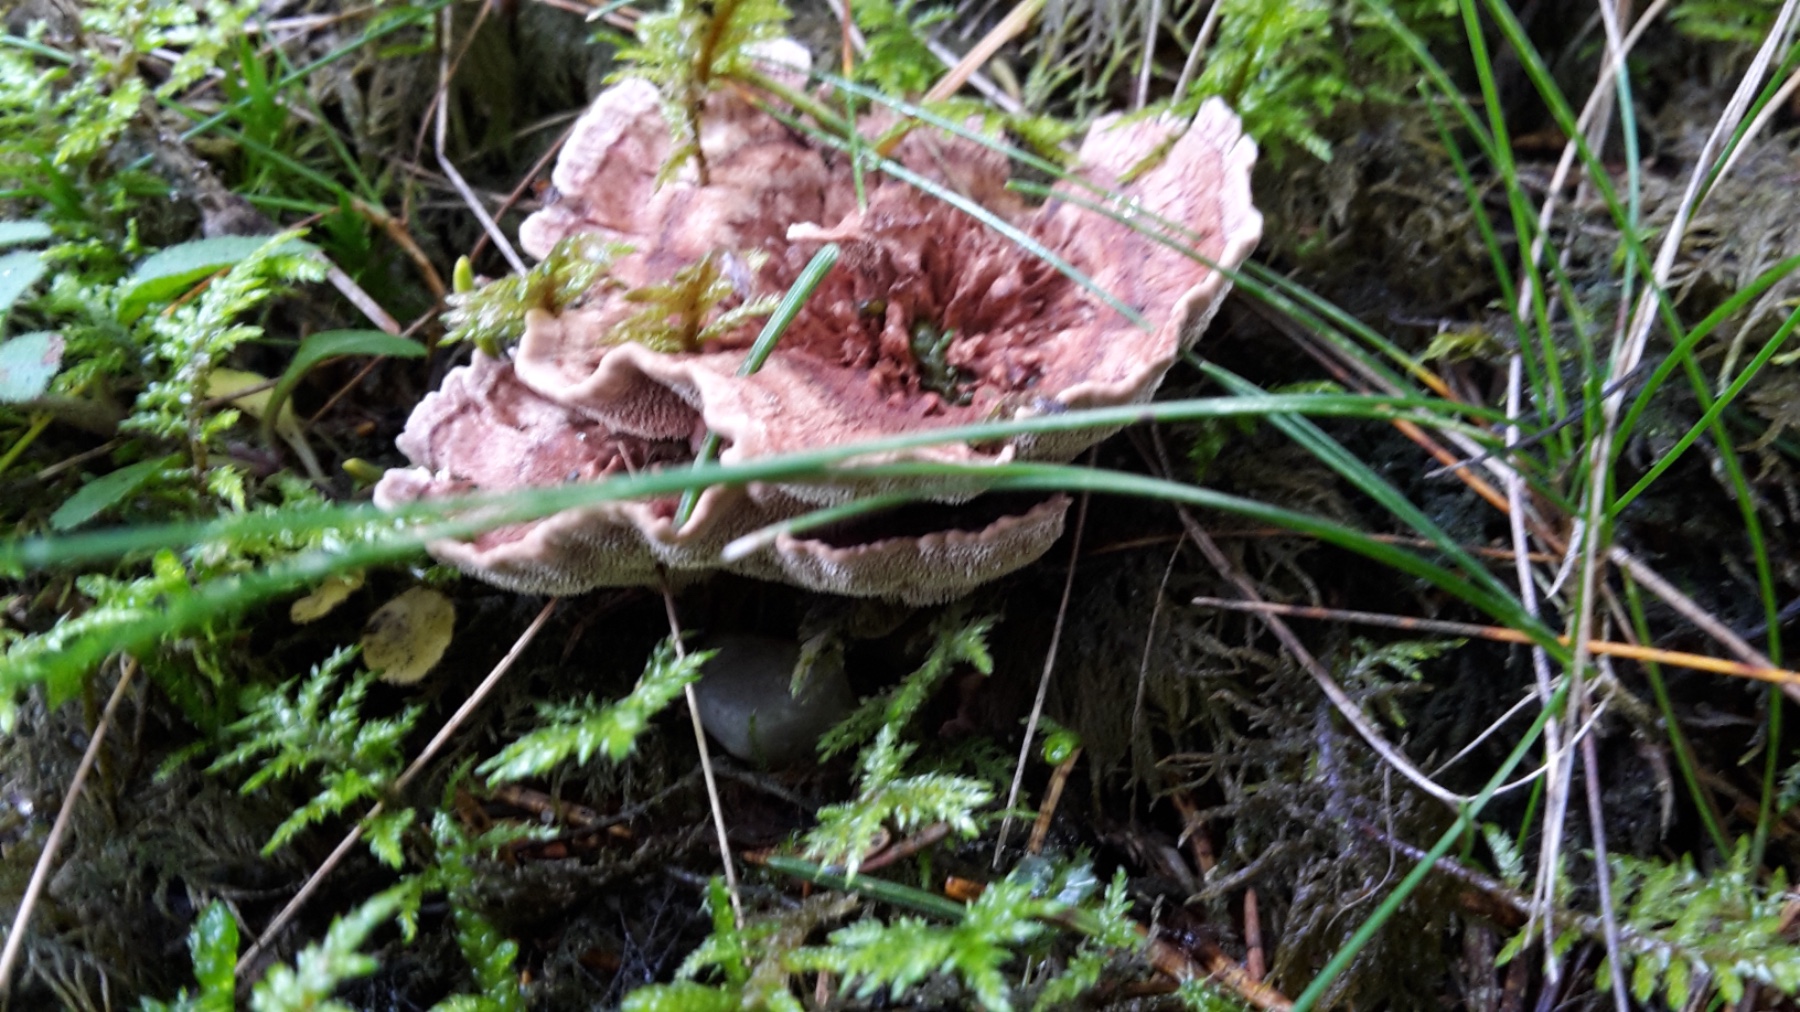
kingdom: Fungi
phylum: Basidiomycota
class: Agaricomycetes
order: Thelephorales
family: Bankeraceae
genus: Hydnellum
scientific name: Hydnellum concrescens
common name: bæltet korkpigsvamp
